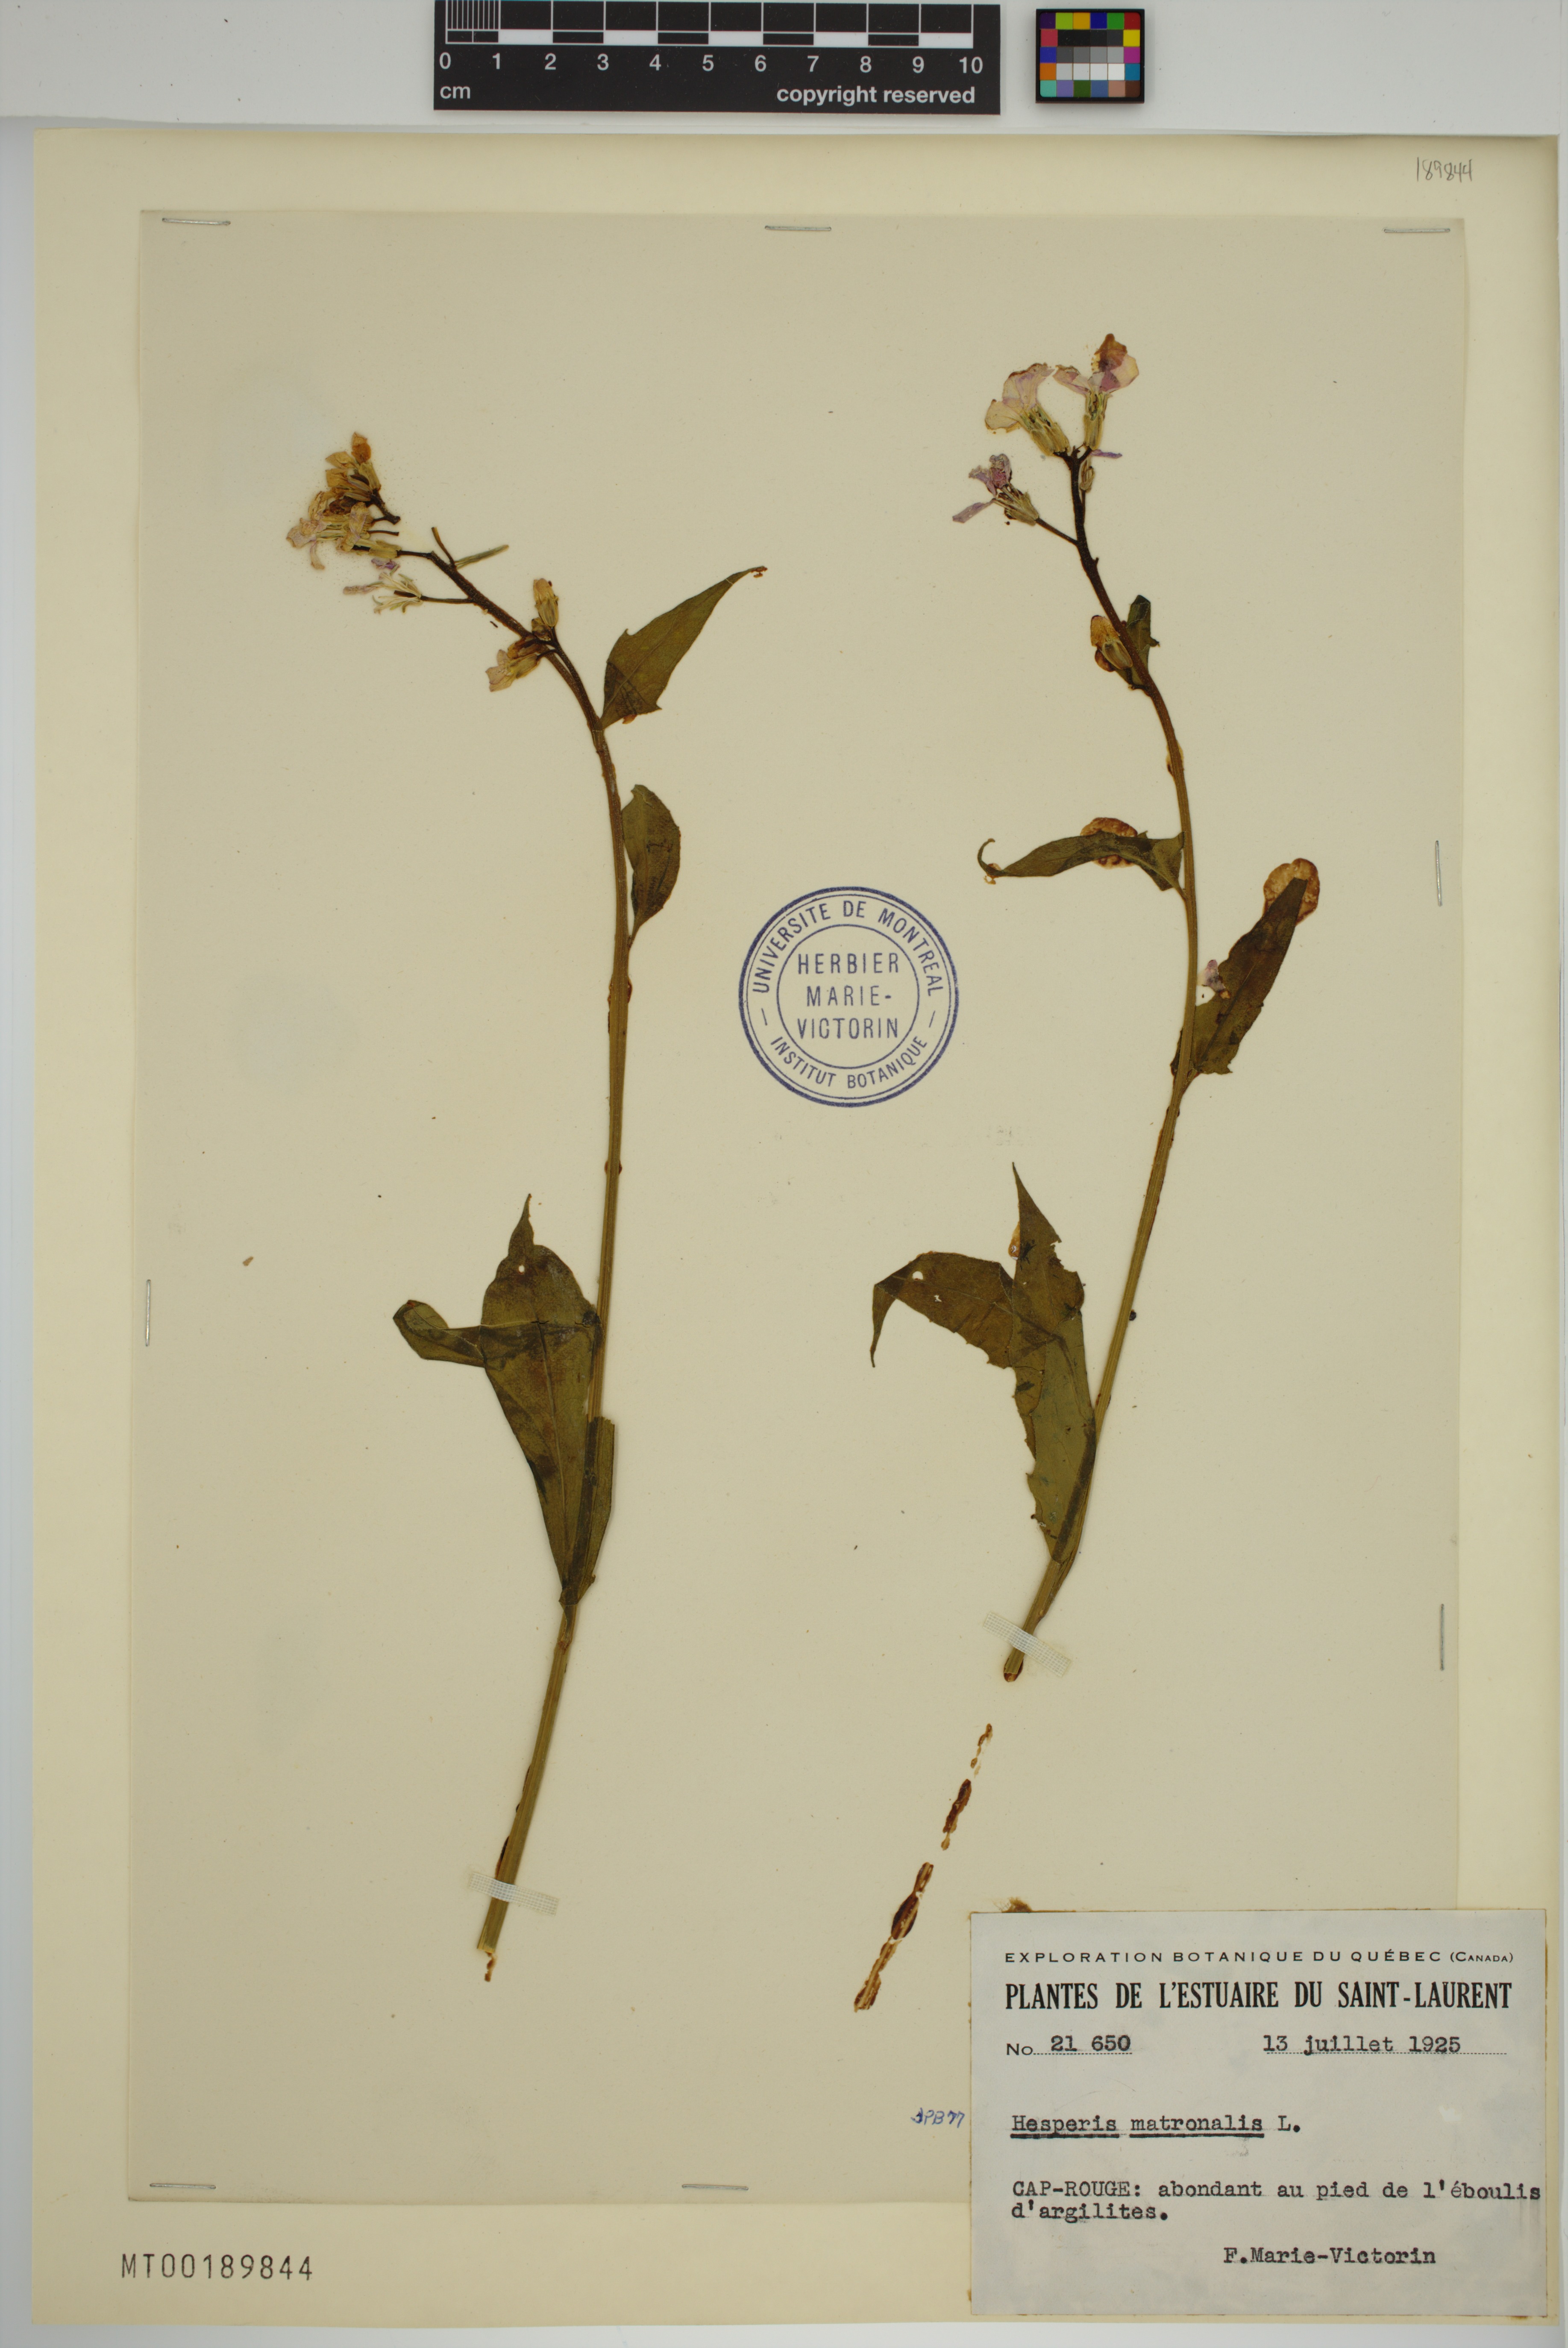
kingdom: Plantae
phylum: Tracheophyta
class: Magnoliopsida
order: Brassicales
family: Brassicaceae
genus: Hesperis
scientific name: Hesperis matronalis
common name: Dame's-violet
